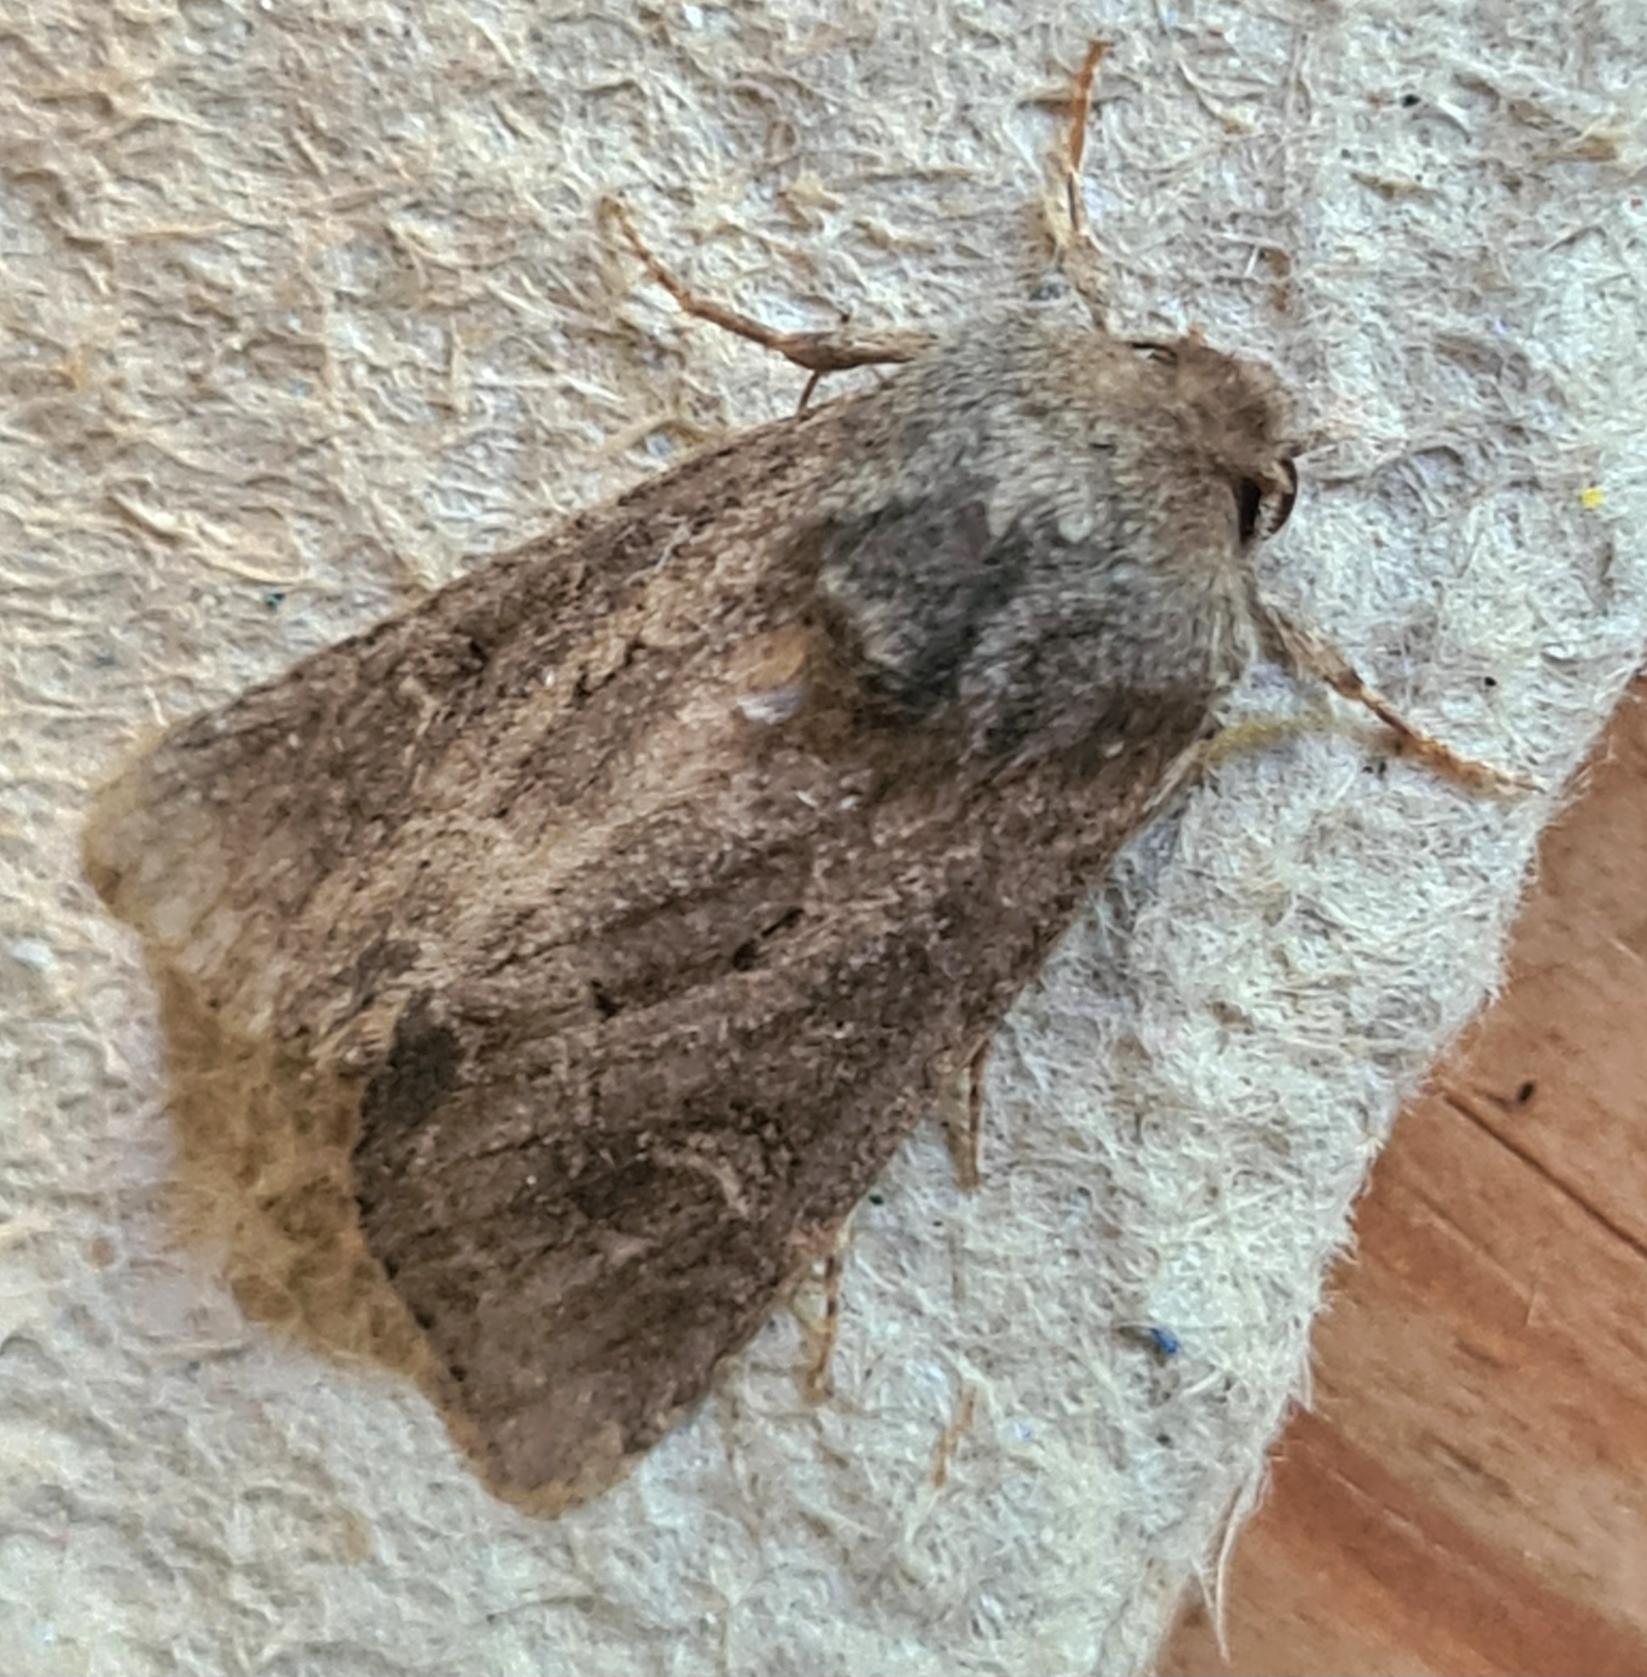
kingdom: Animalia
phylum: Arthropoda
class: Insecta
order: Lepidoptera
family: Noctuidae
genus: Luperina
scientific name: Luperina testacea
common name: Frøgræsugle
